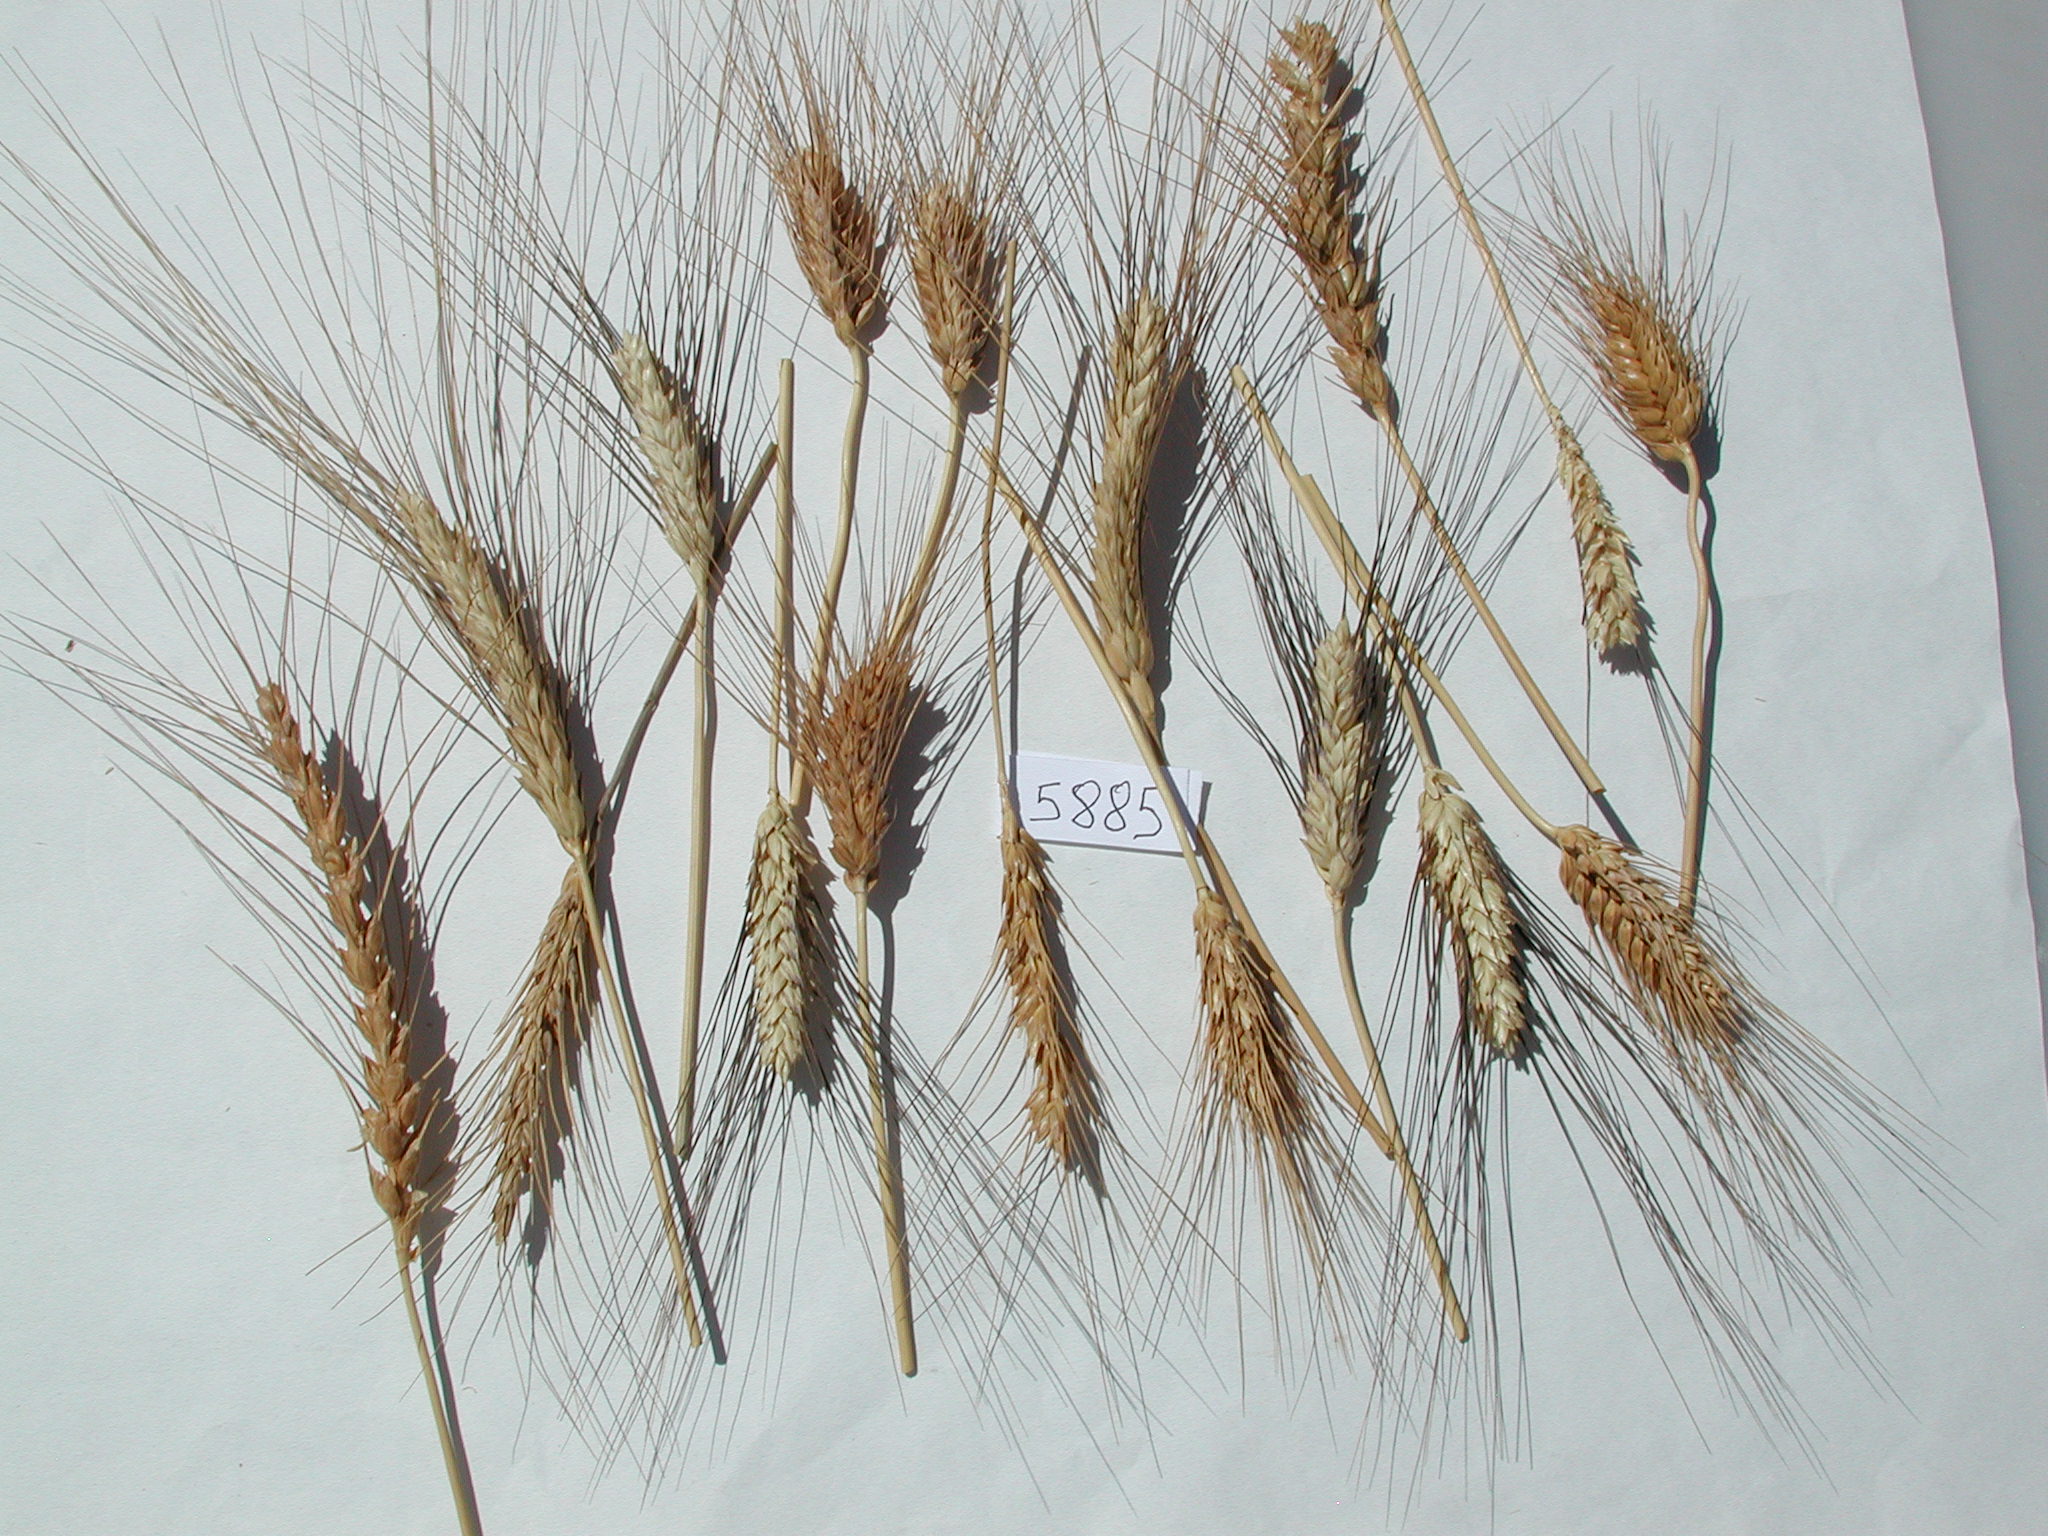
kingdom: Plantae
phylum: Tracheophyta
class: Liliopsida
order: Poales
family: Poaceae
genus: Triticum
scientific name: Triticum aestivum
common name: Wheat
